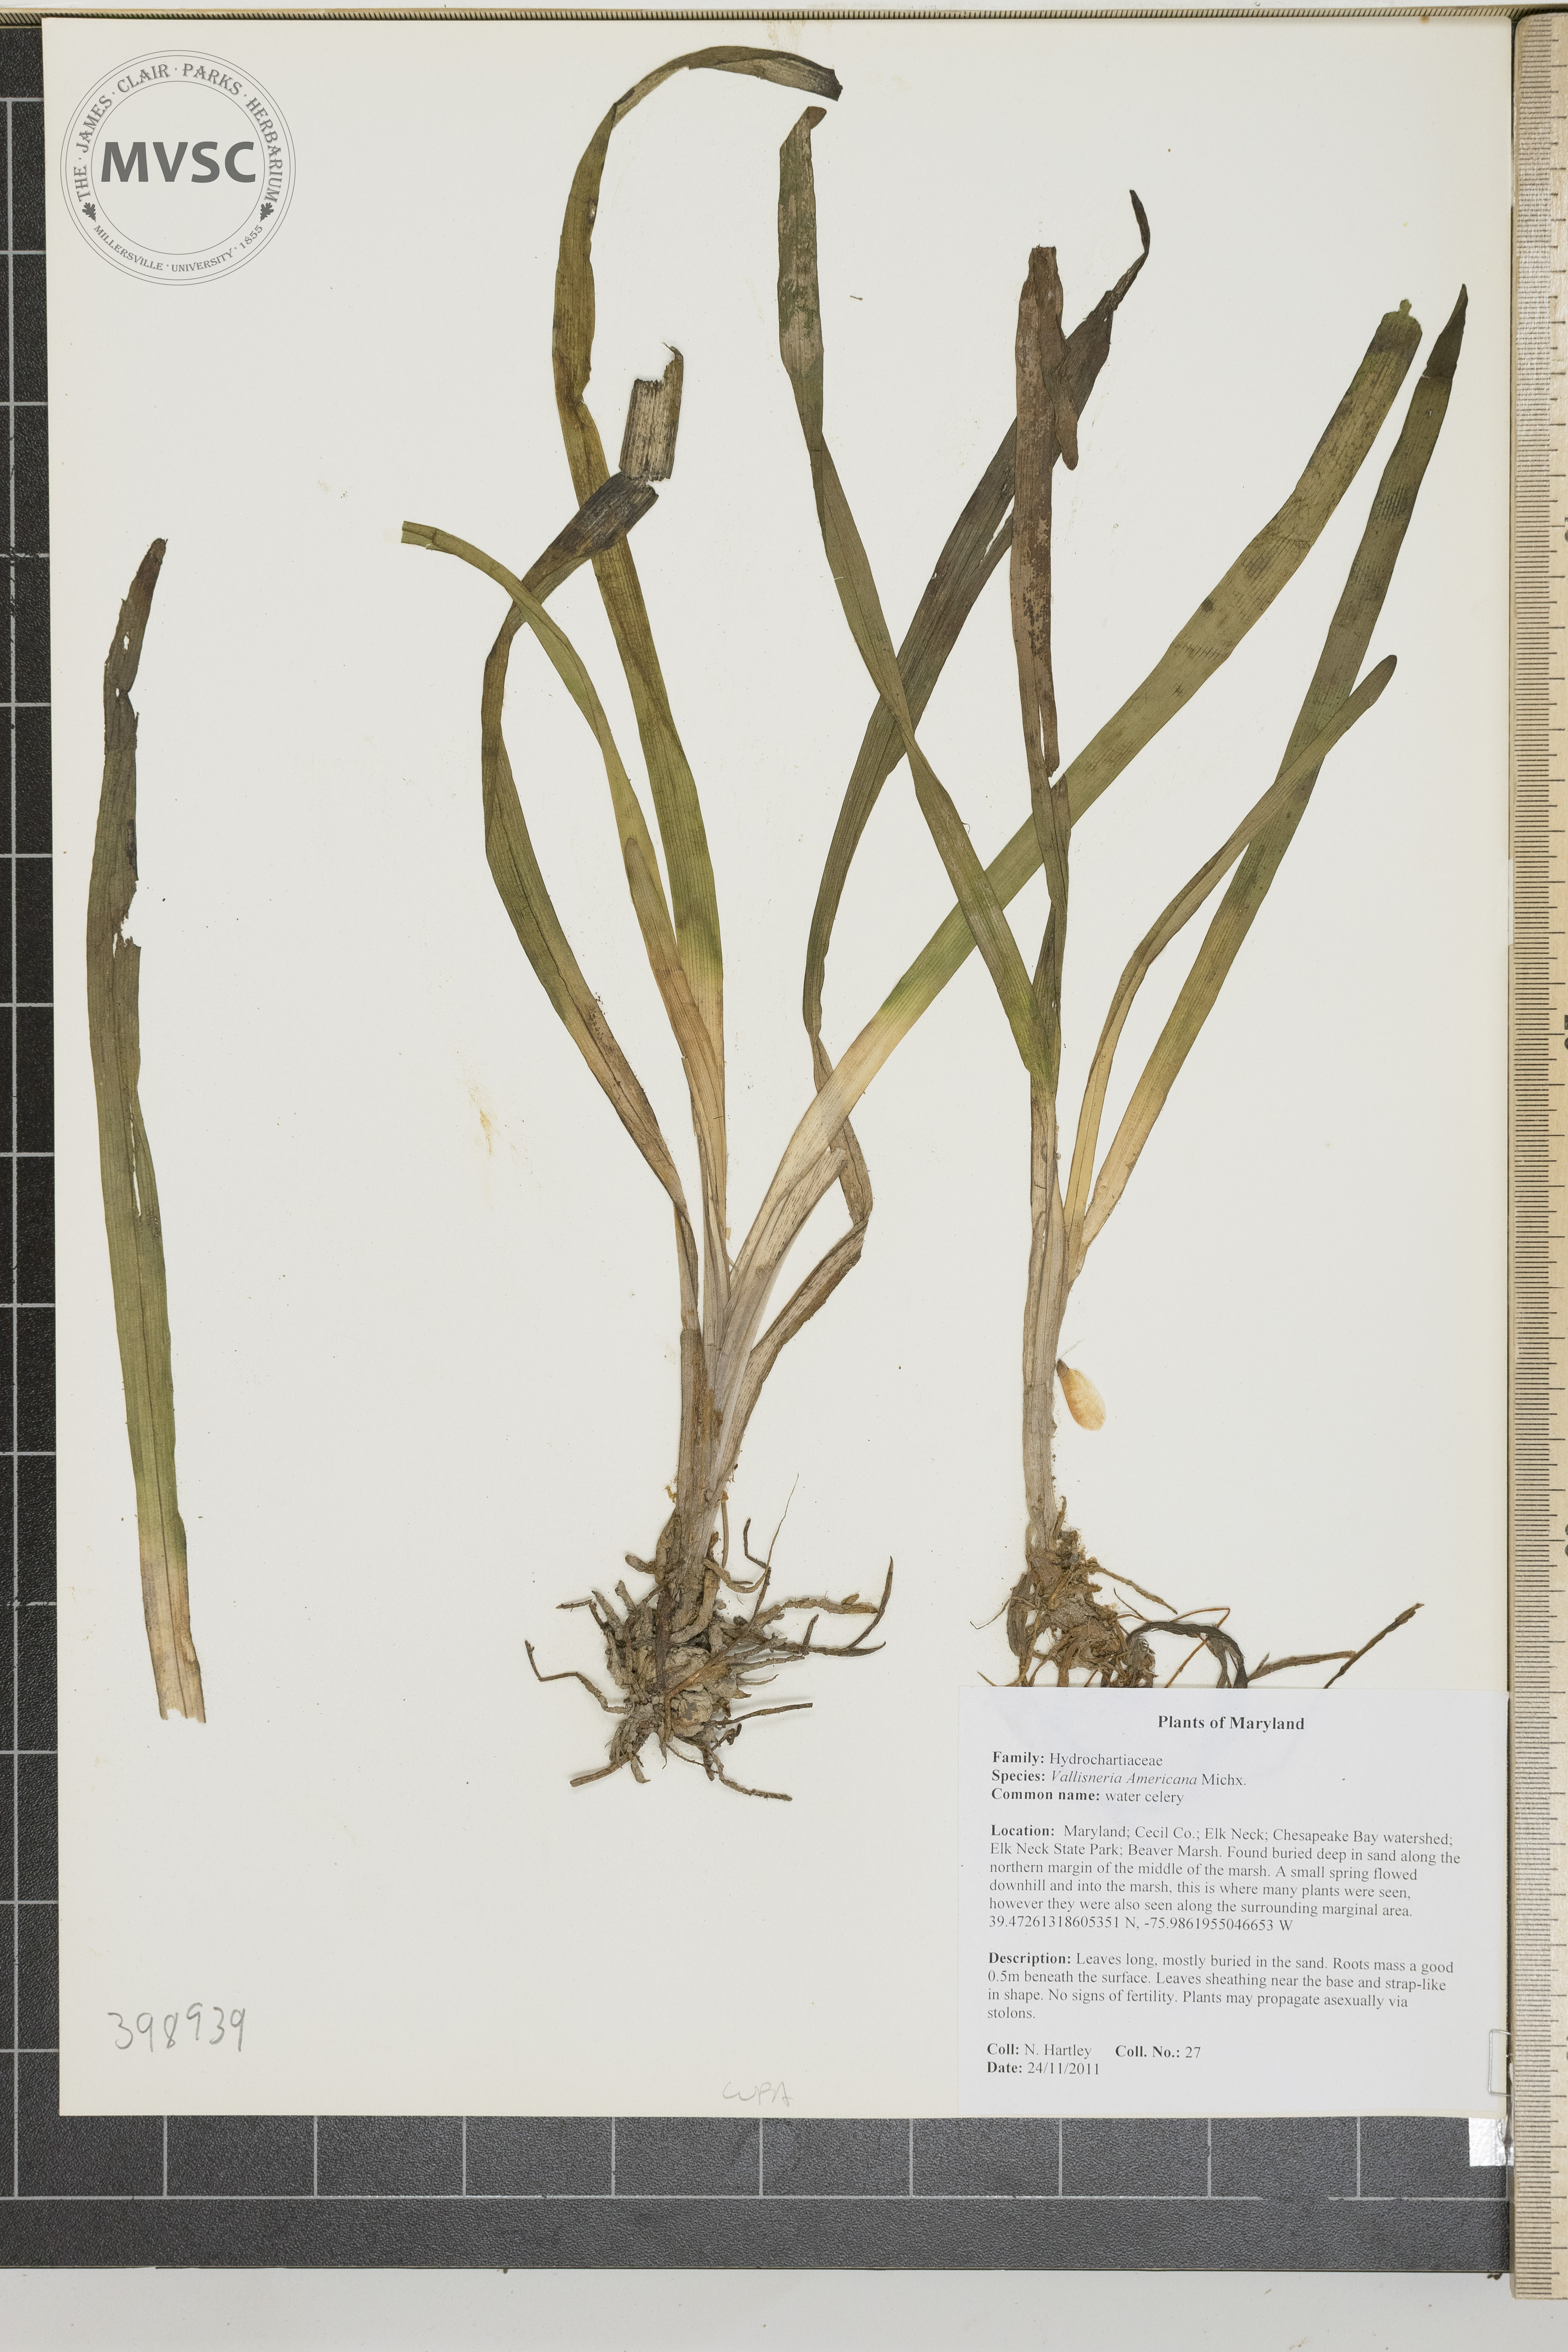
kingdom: Plantae
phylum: Tracheophyta
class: Liliopsida
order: Alismatales
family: Hydrocharitaceae
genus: Vallisneria
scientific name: Vallisneria americana
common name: Corn-salad
